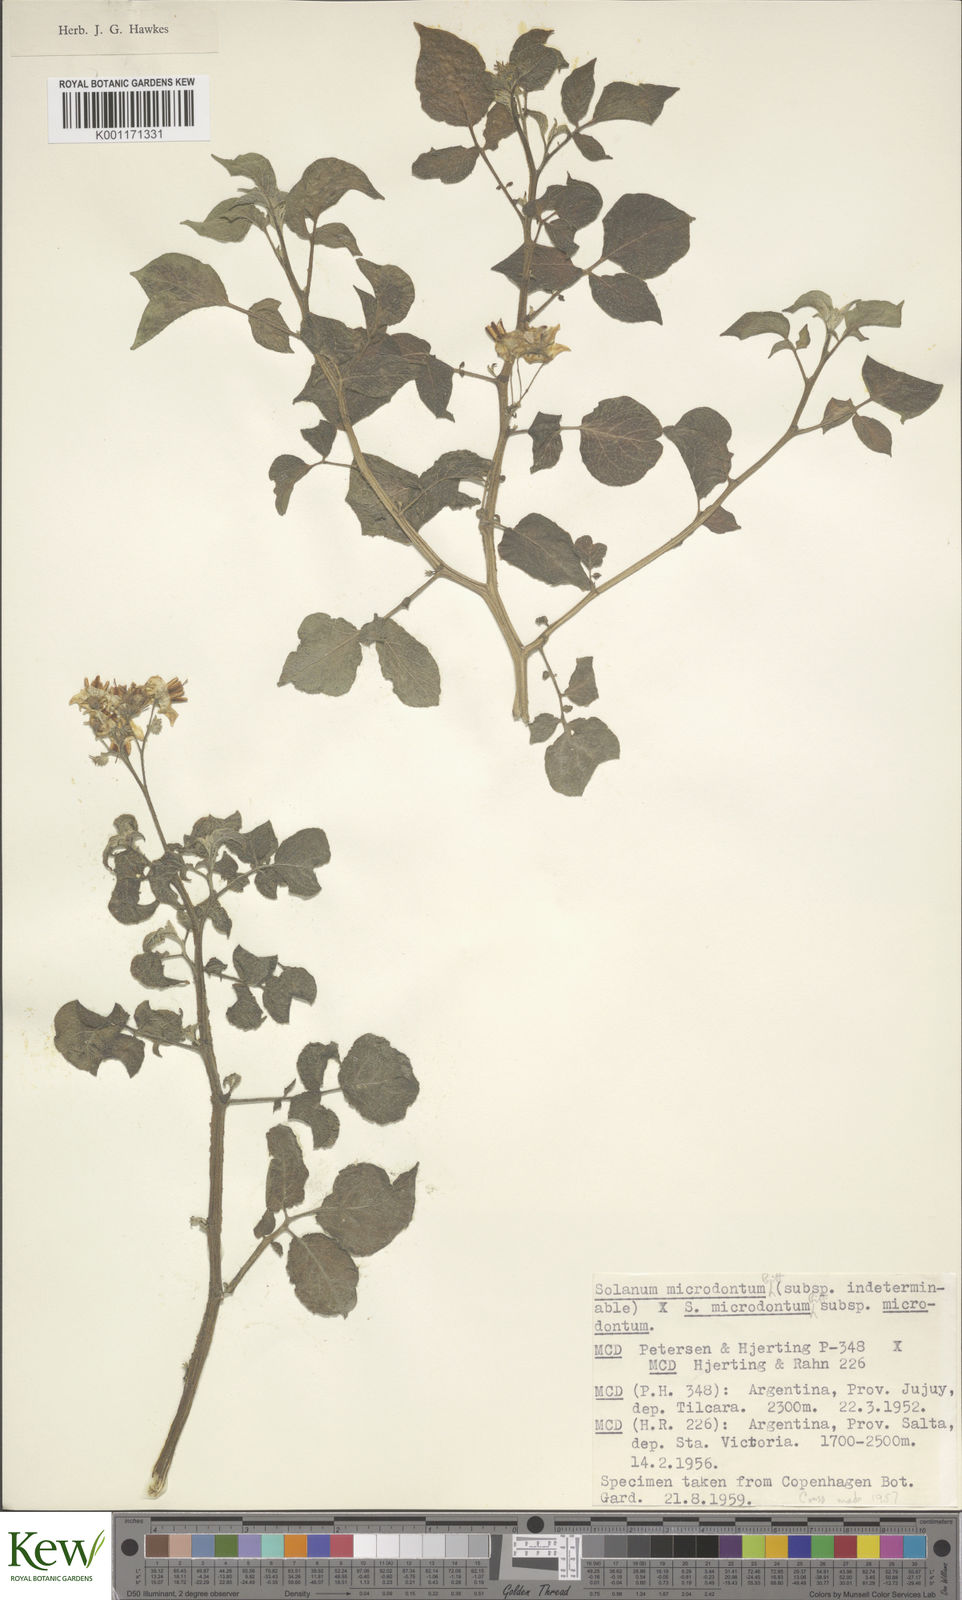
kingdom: Plantae
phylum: Tracheophyta
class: Magnoliopsida
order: Solanales
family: Solanaceae
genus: Solanum
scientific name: Solanum microdontum
